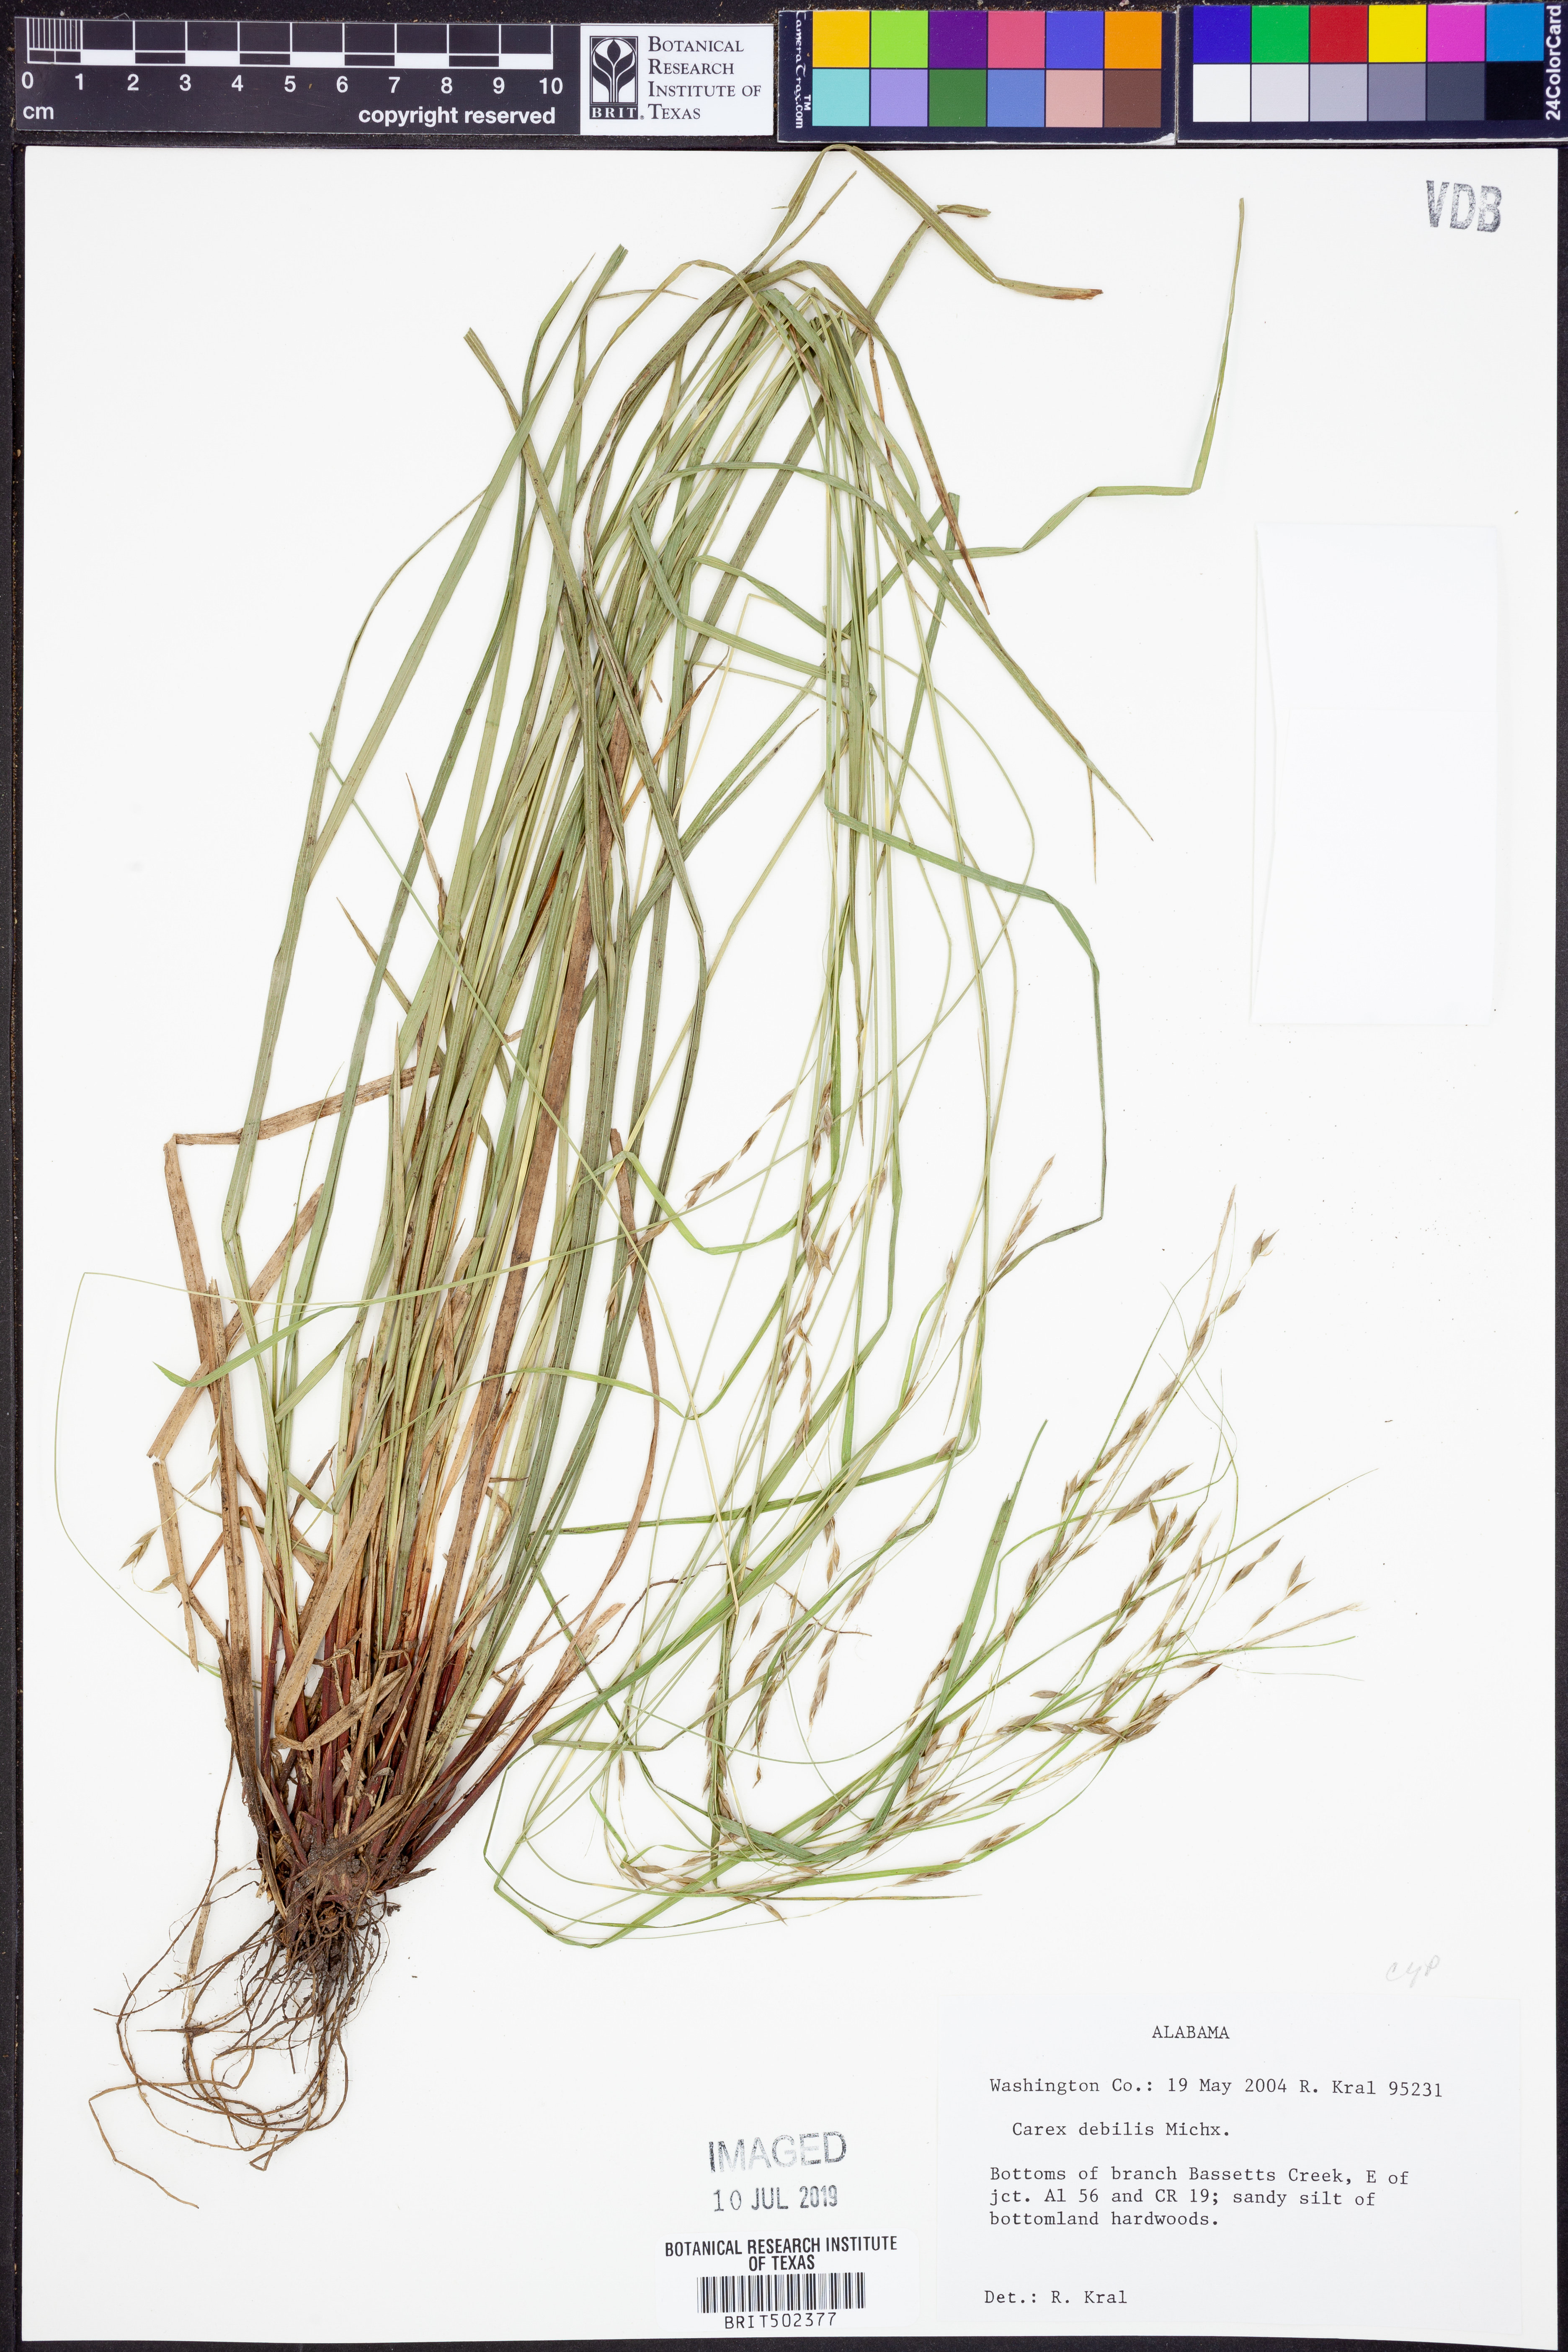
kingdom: Plantae
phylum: Tracheophyta
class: Liliopsida
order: Poales
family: Cyperaceae
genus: Carex
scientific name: Carex debilis
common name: White-edge sedge
